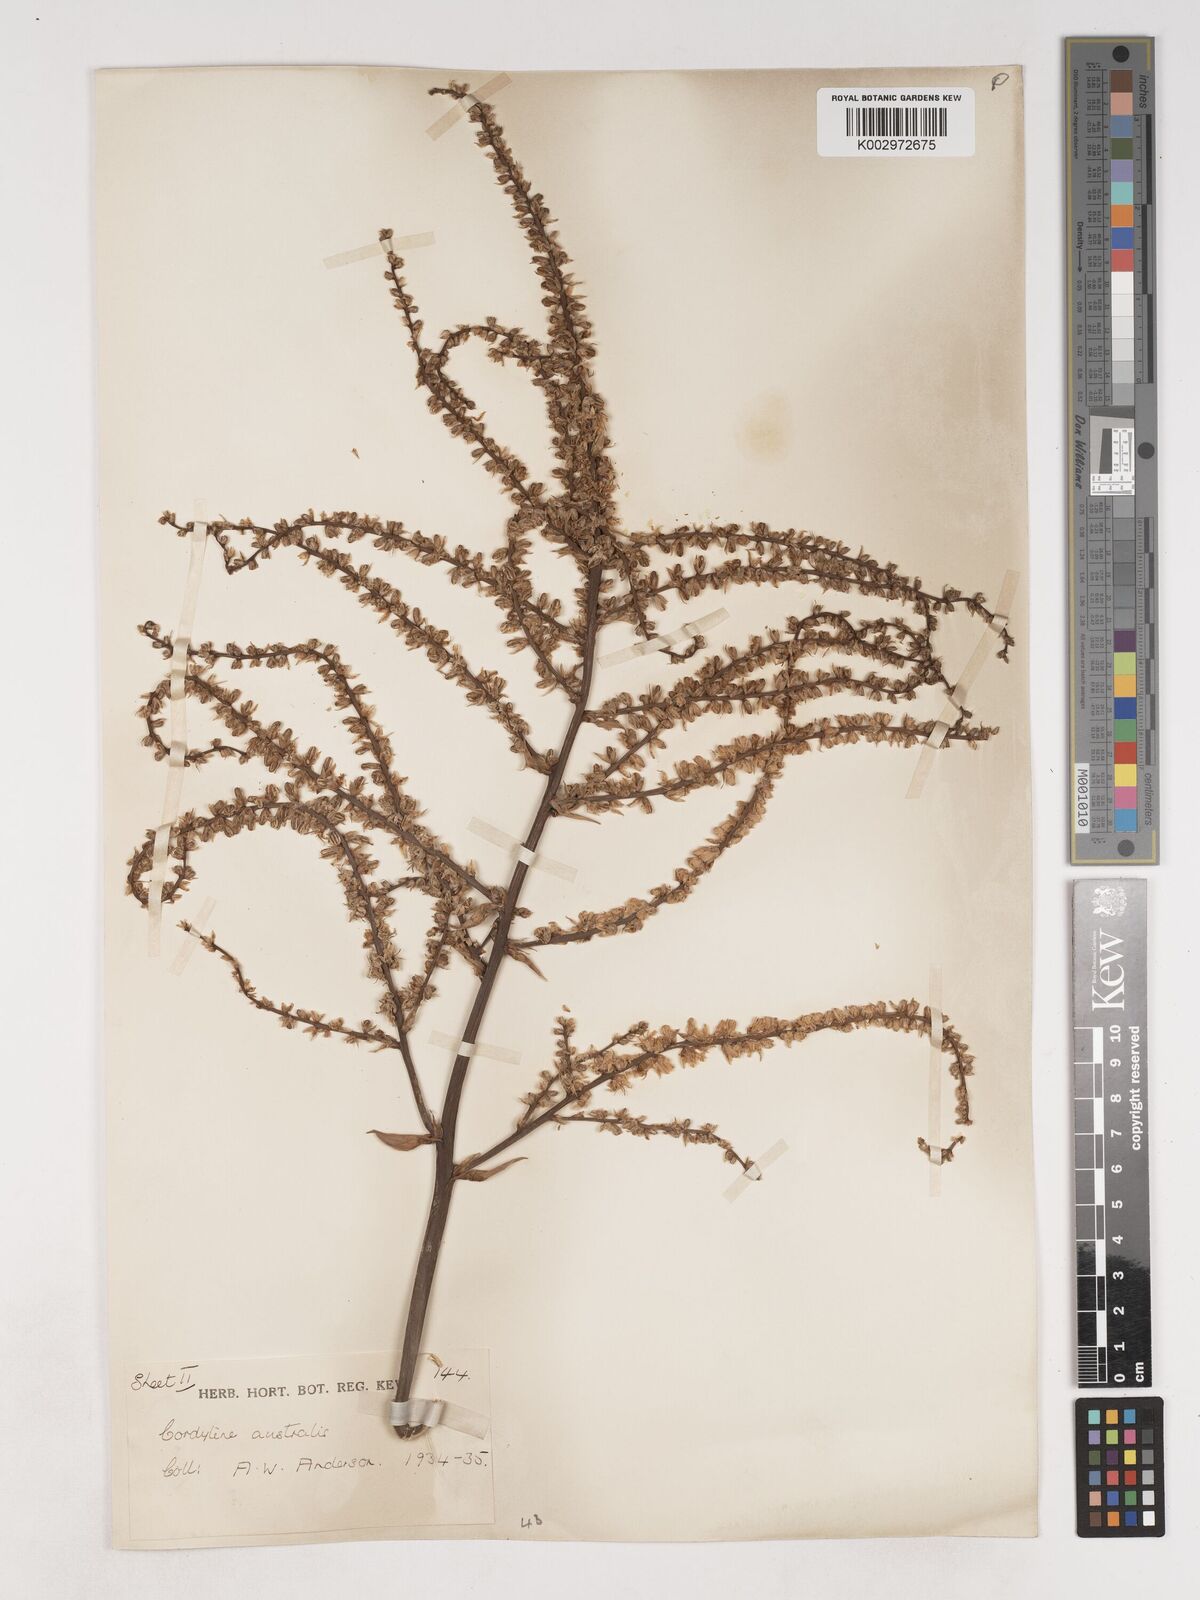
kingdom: Plantae
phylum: Tracheophyta
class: Liliopsida
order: Asparagales
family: Asparagaceae
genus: Cordyline
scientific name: Cordyline australis
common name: Cabbage-palm
